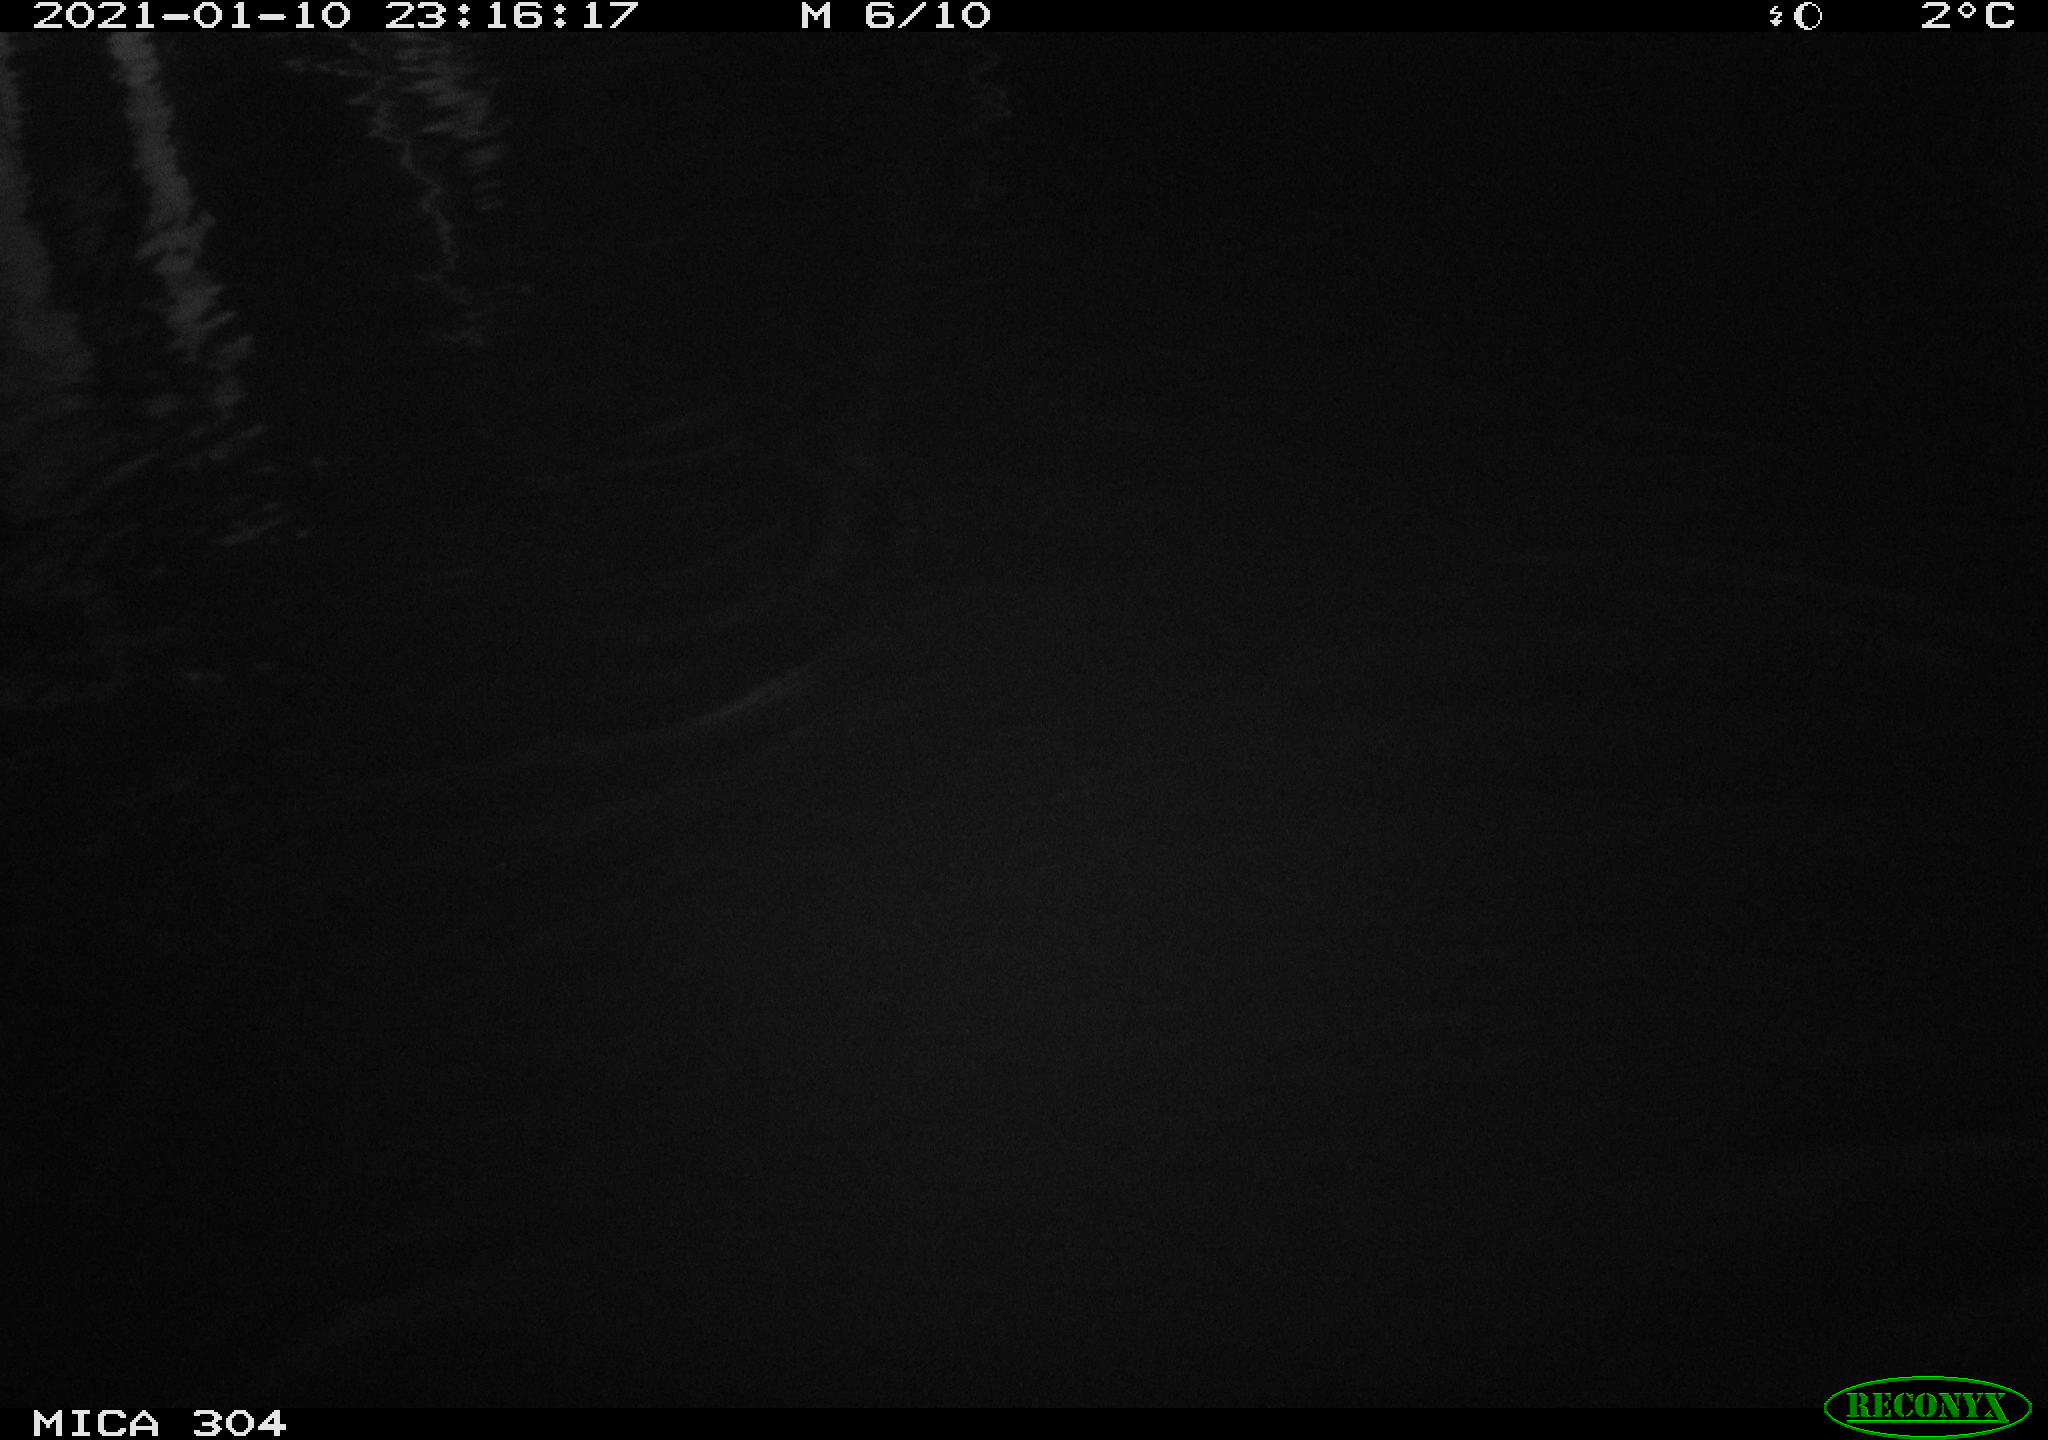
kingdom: Animalia
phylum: Chordata
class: Aves
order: Anseriformes
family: Anatidae
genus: Anas
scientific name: Anas platyrhynchos
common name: Mallard
